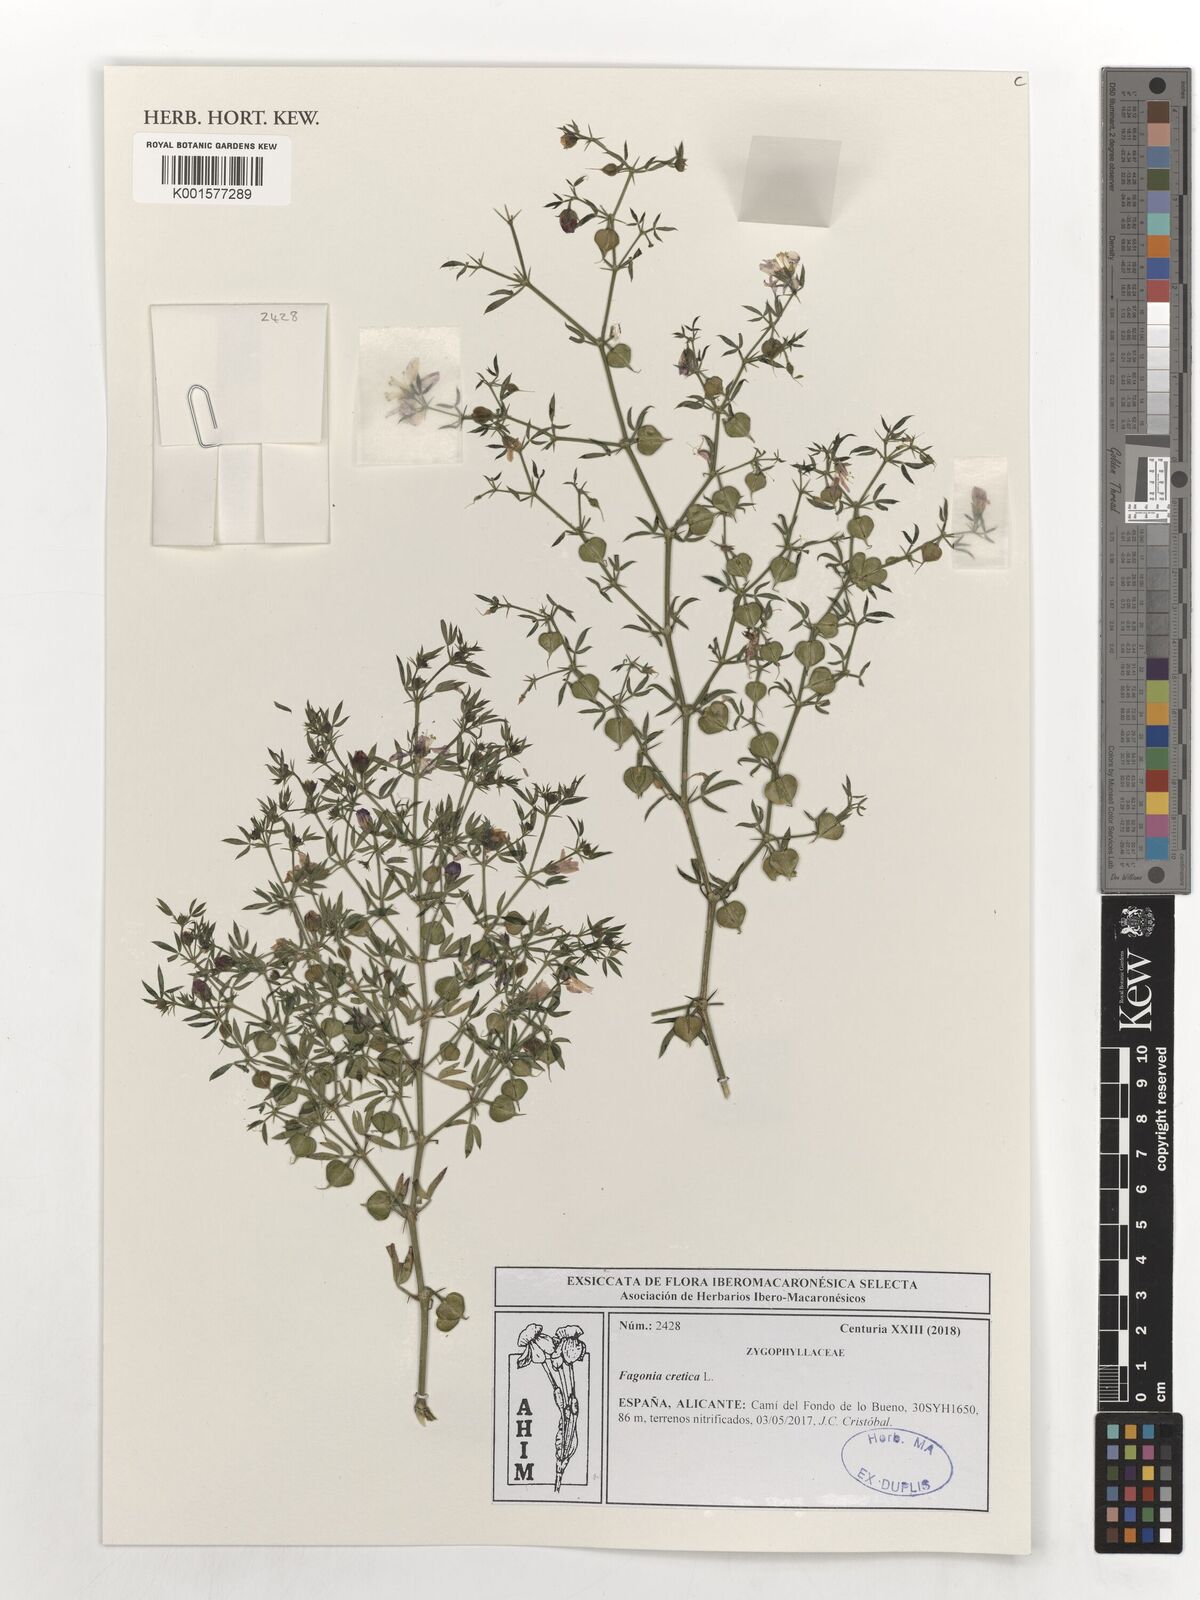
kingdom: Plantae
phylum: Tracheophyta
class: Magnoliopsida
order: Zygophyllales
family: Zygophyllaceae
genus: Fagonia
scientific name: Fagonia cretica
